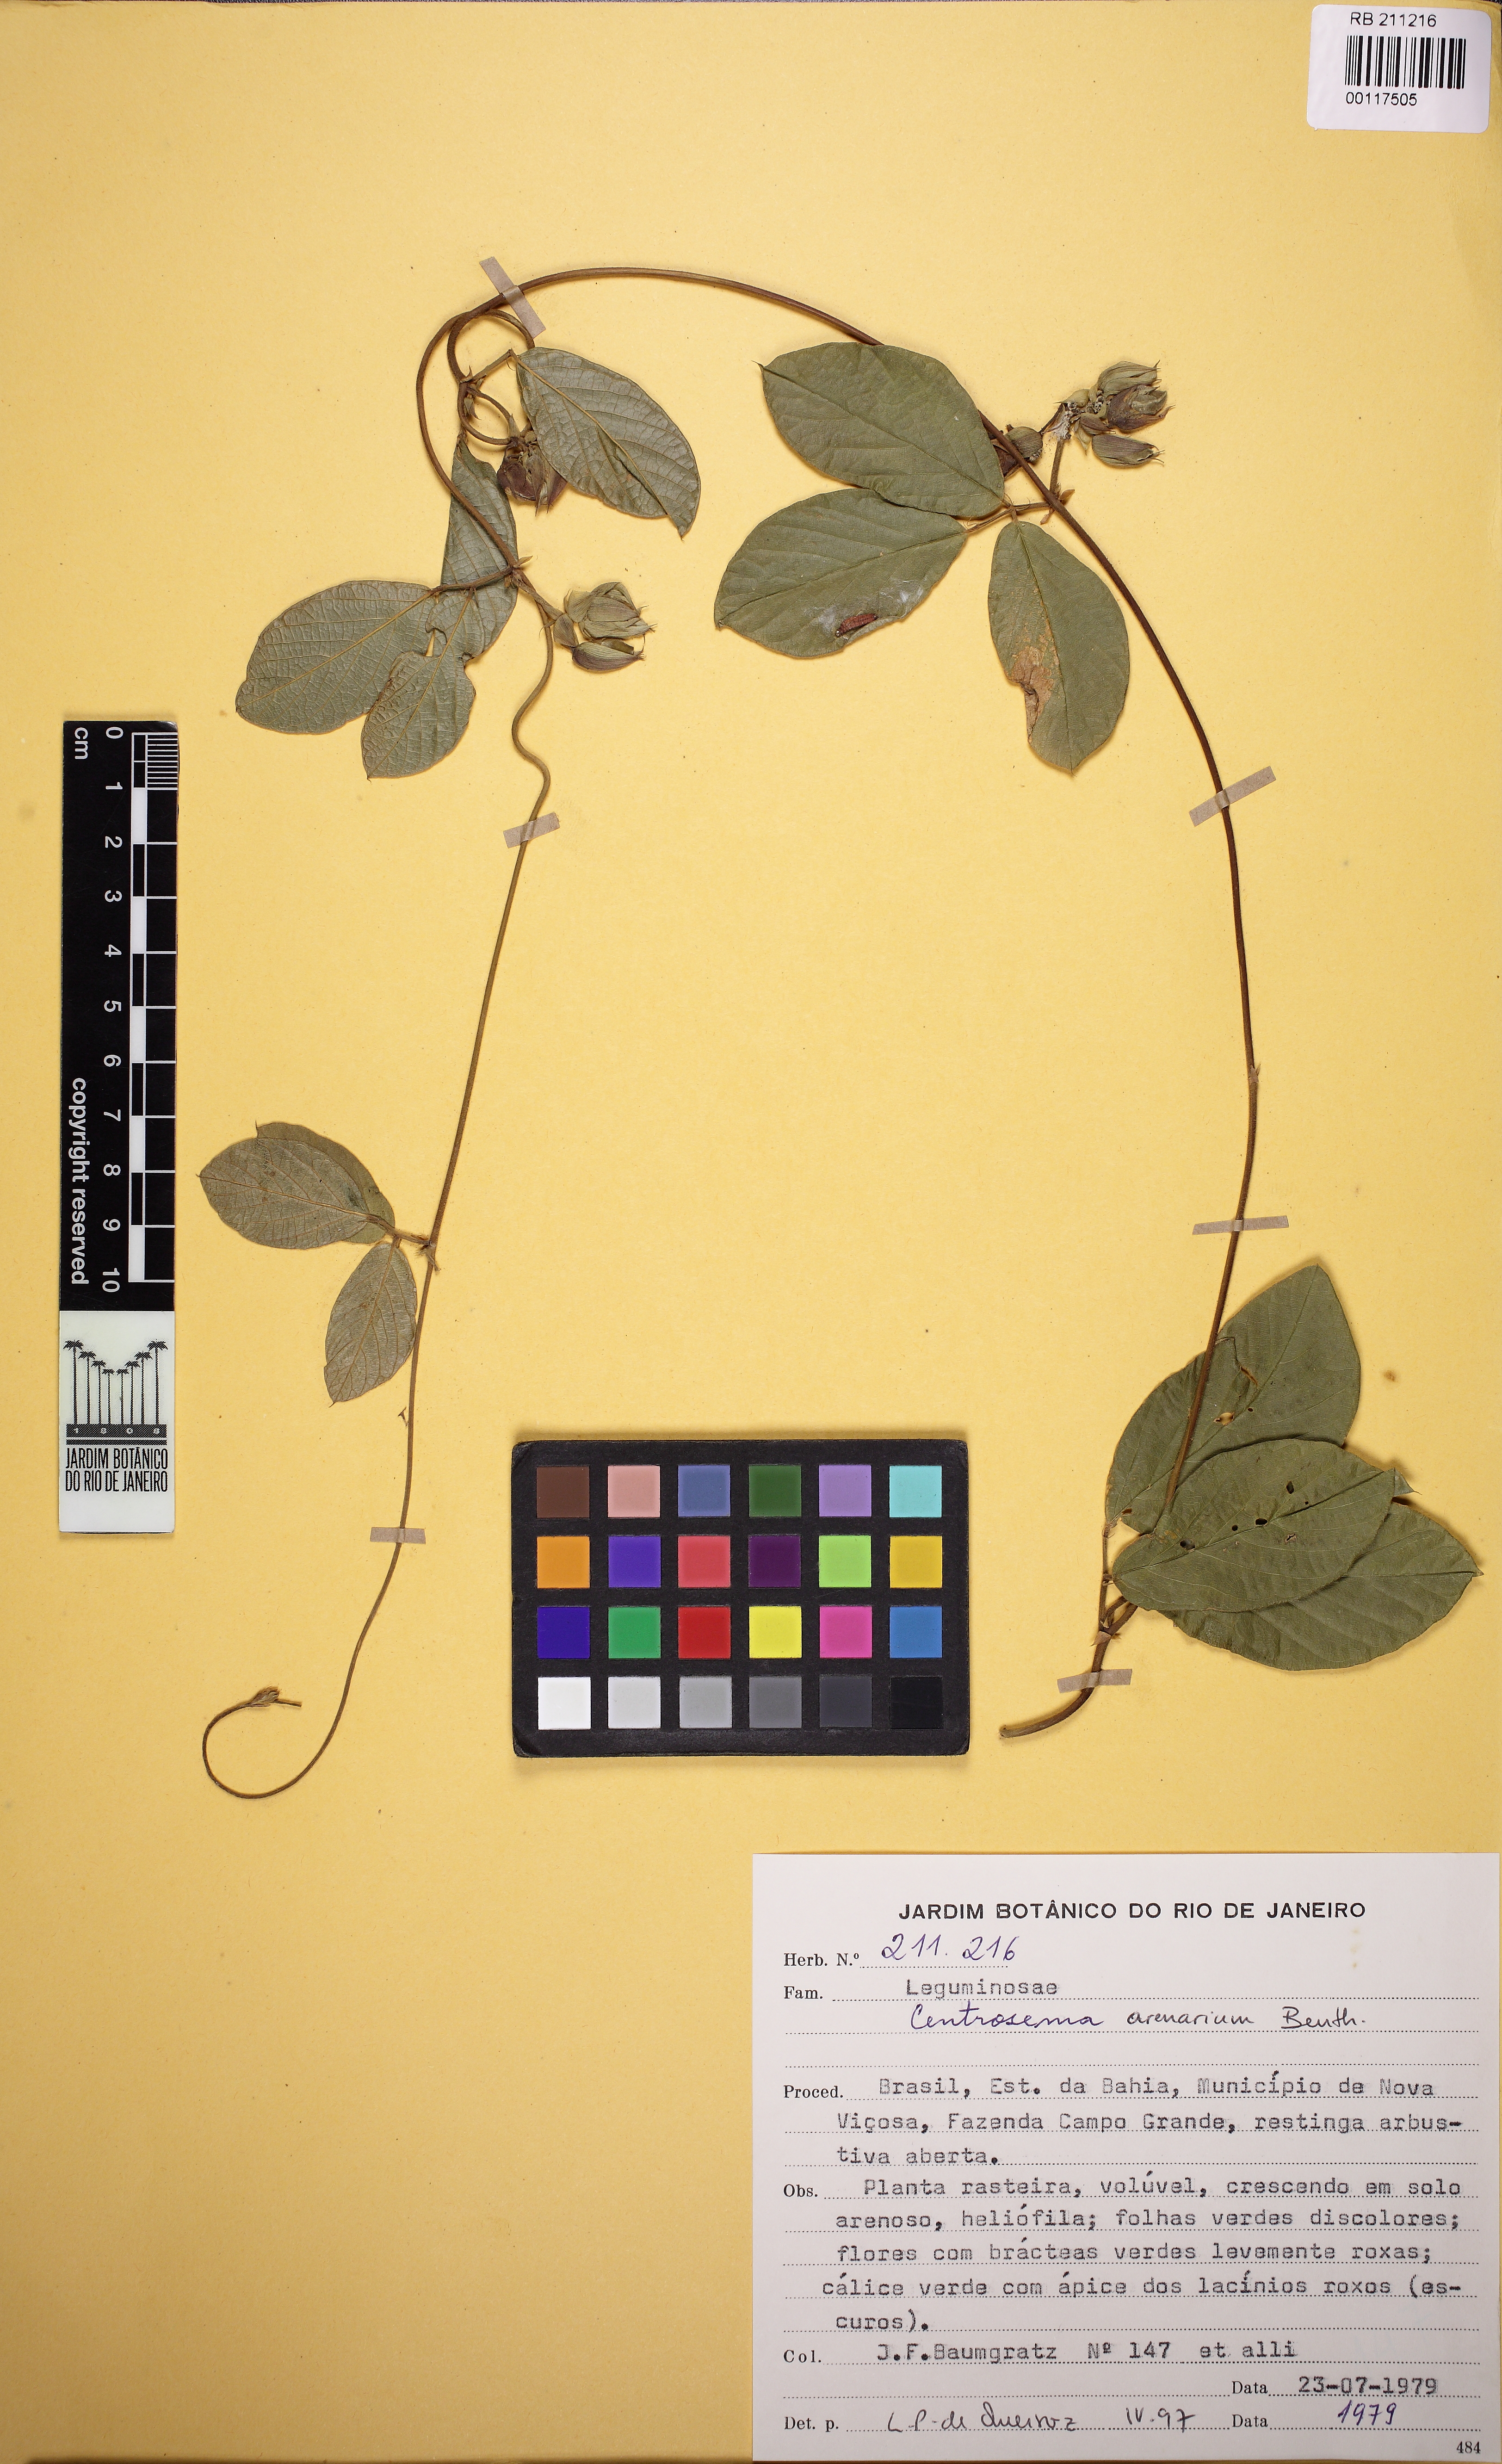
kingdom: Plantae
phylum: Tracheophyta
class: Magnoliopsida
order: Fabales
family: Fabaceae
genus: Centrosema
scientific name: Centrosema arenarium
